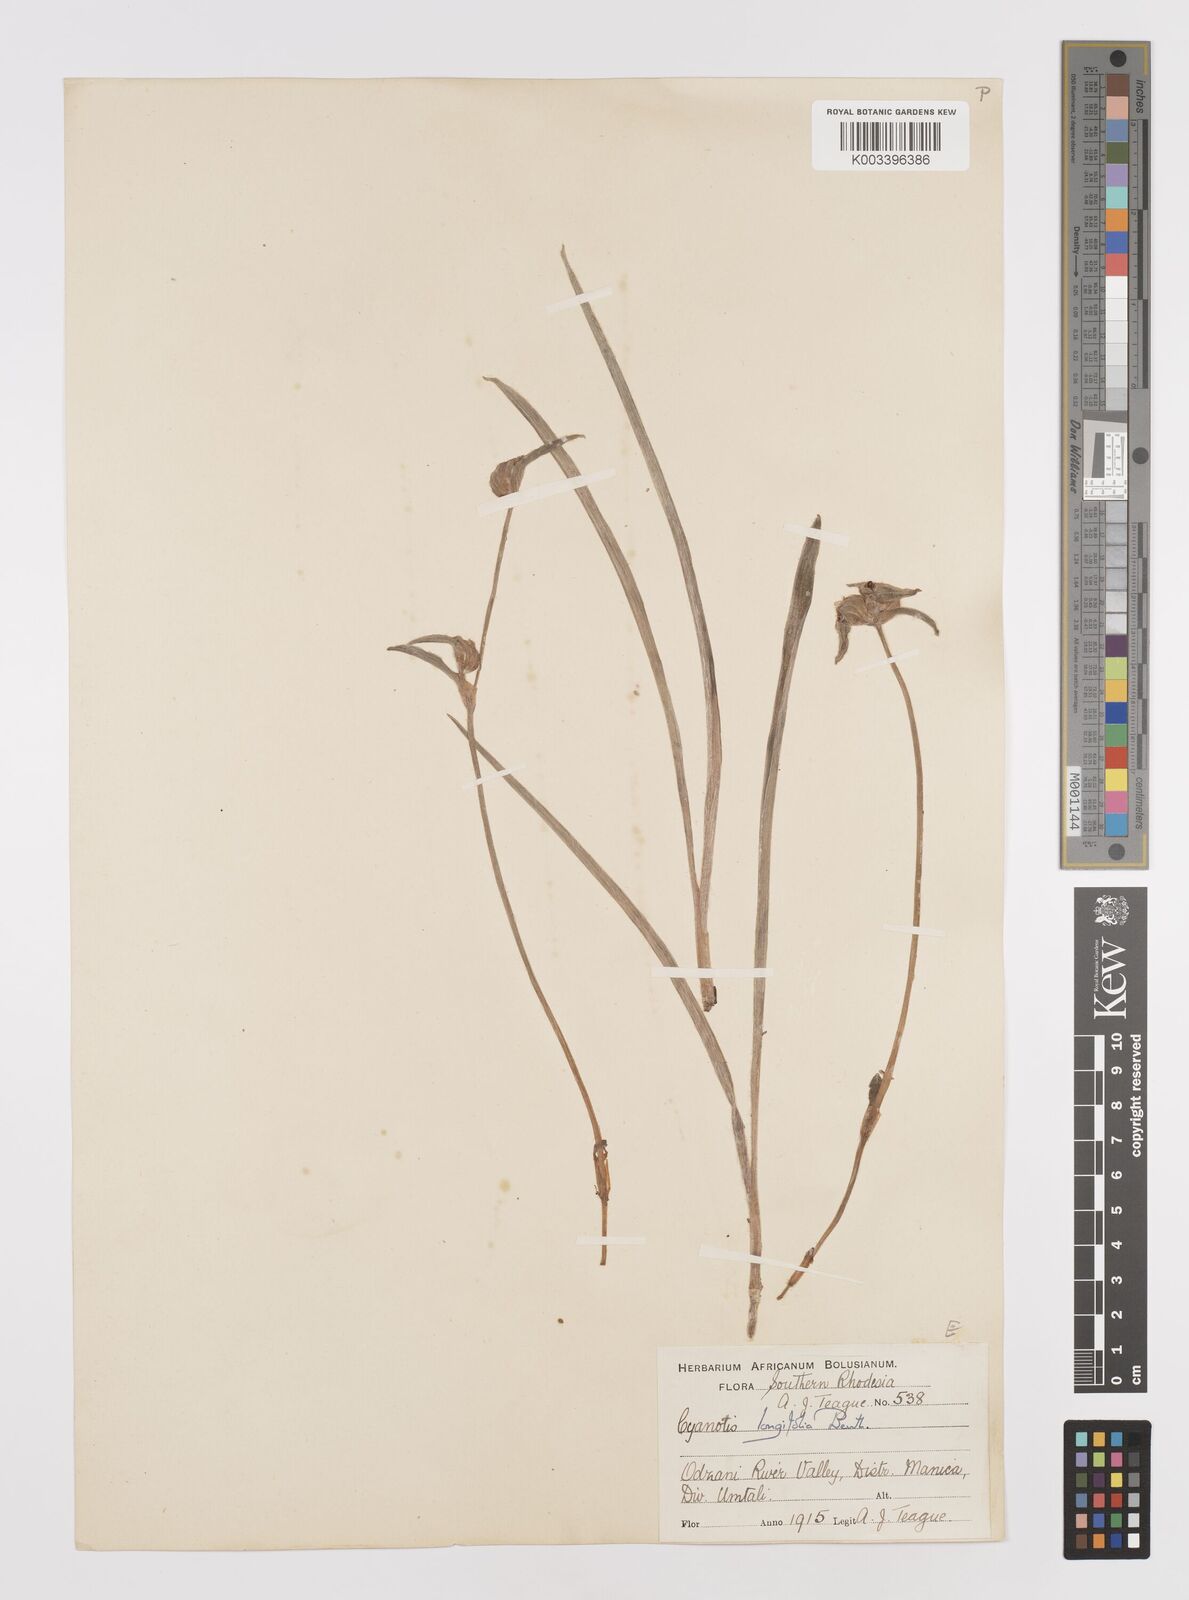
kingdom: Plantae
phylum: Tracheophyta
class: Liliopsida
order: Commelinales
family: Commelinaceae
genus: Cyanotis
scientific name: Cyanotis longifolia
